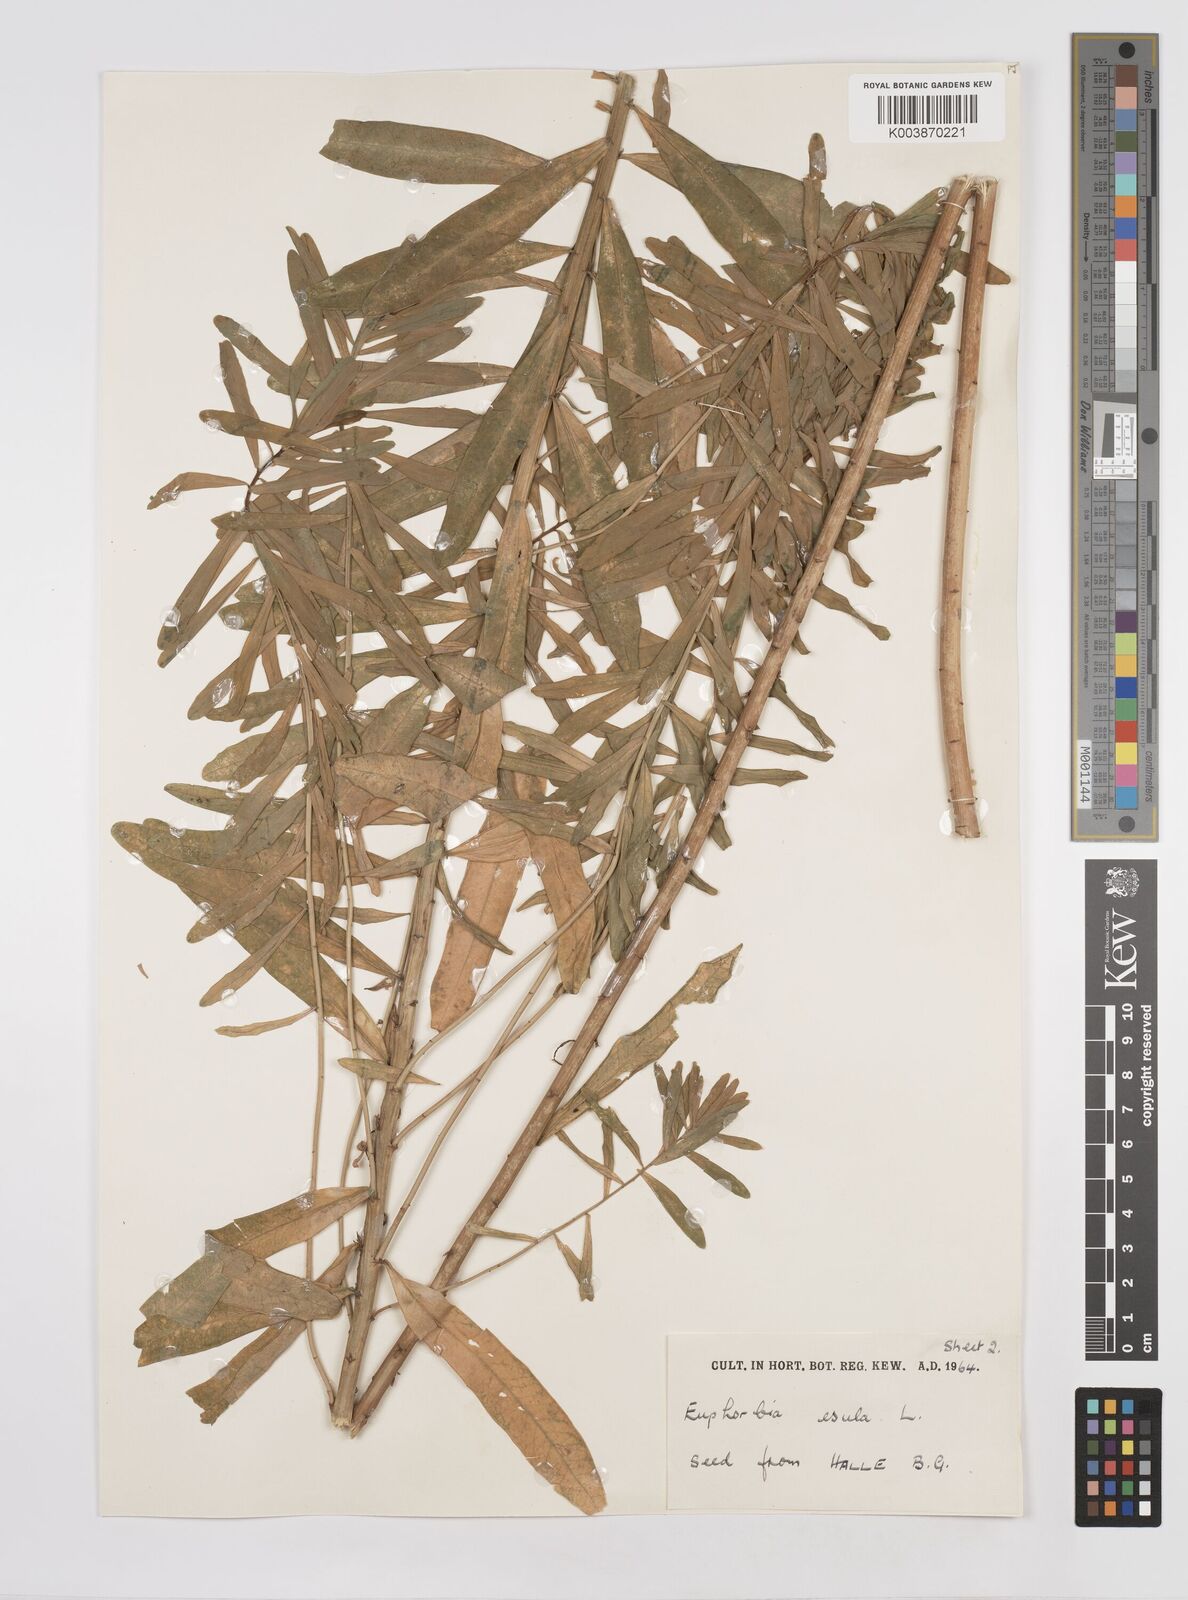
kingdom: Plantae
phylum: Tracheophyta
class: Magnoliopsida
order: Malpighiales
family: Euphorbiaceae
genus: Euphorbia
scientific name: Euphorbia esula
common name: Leafy spurge
